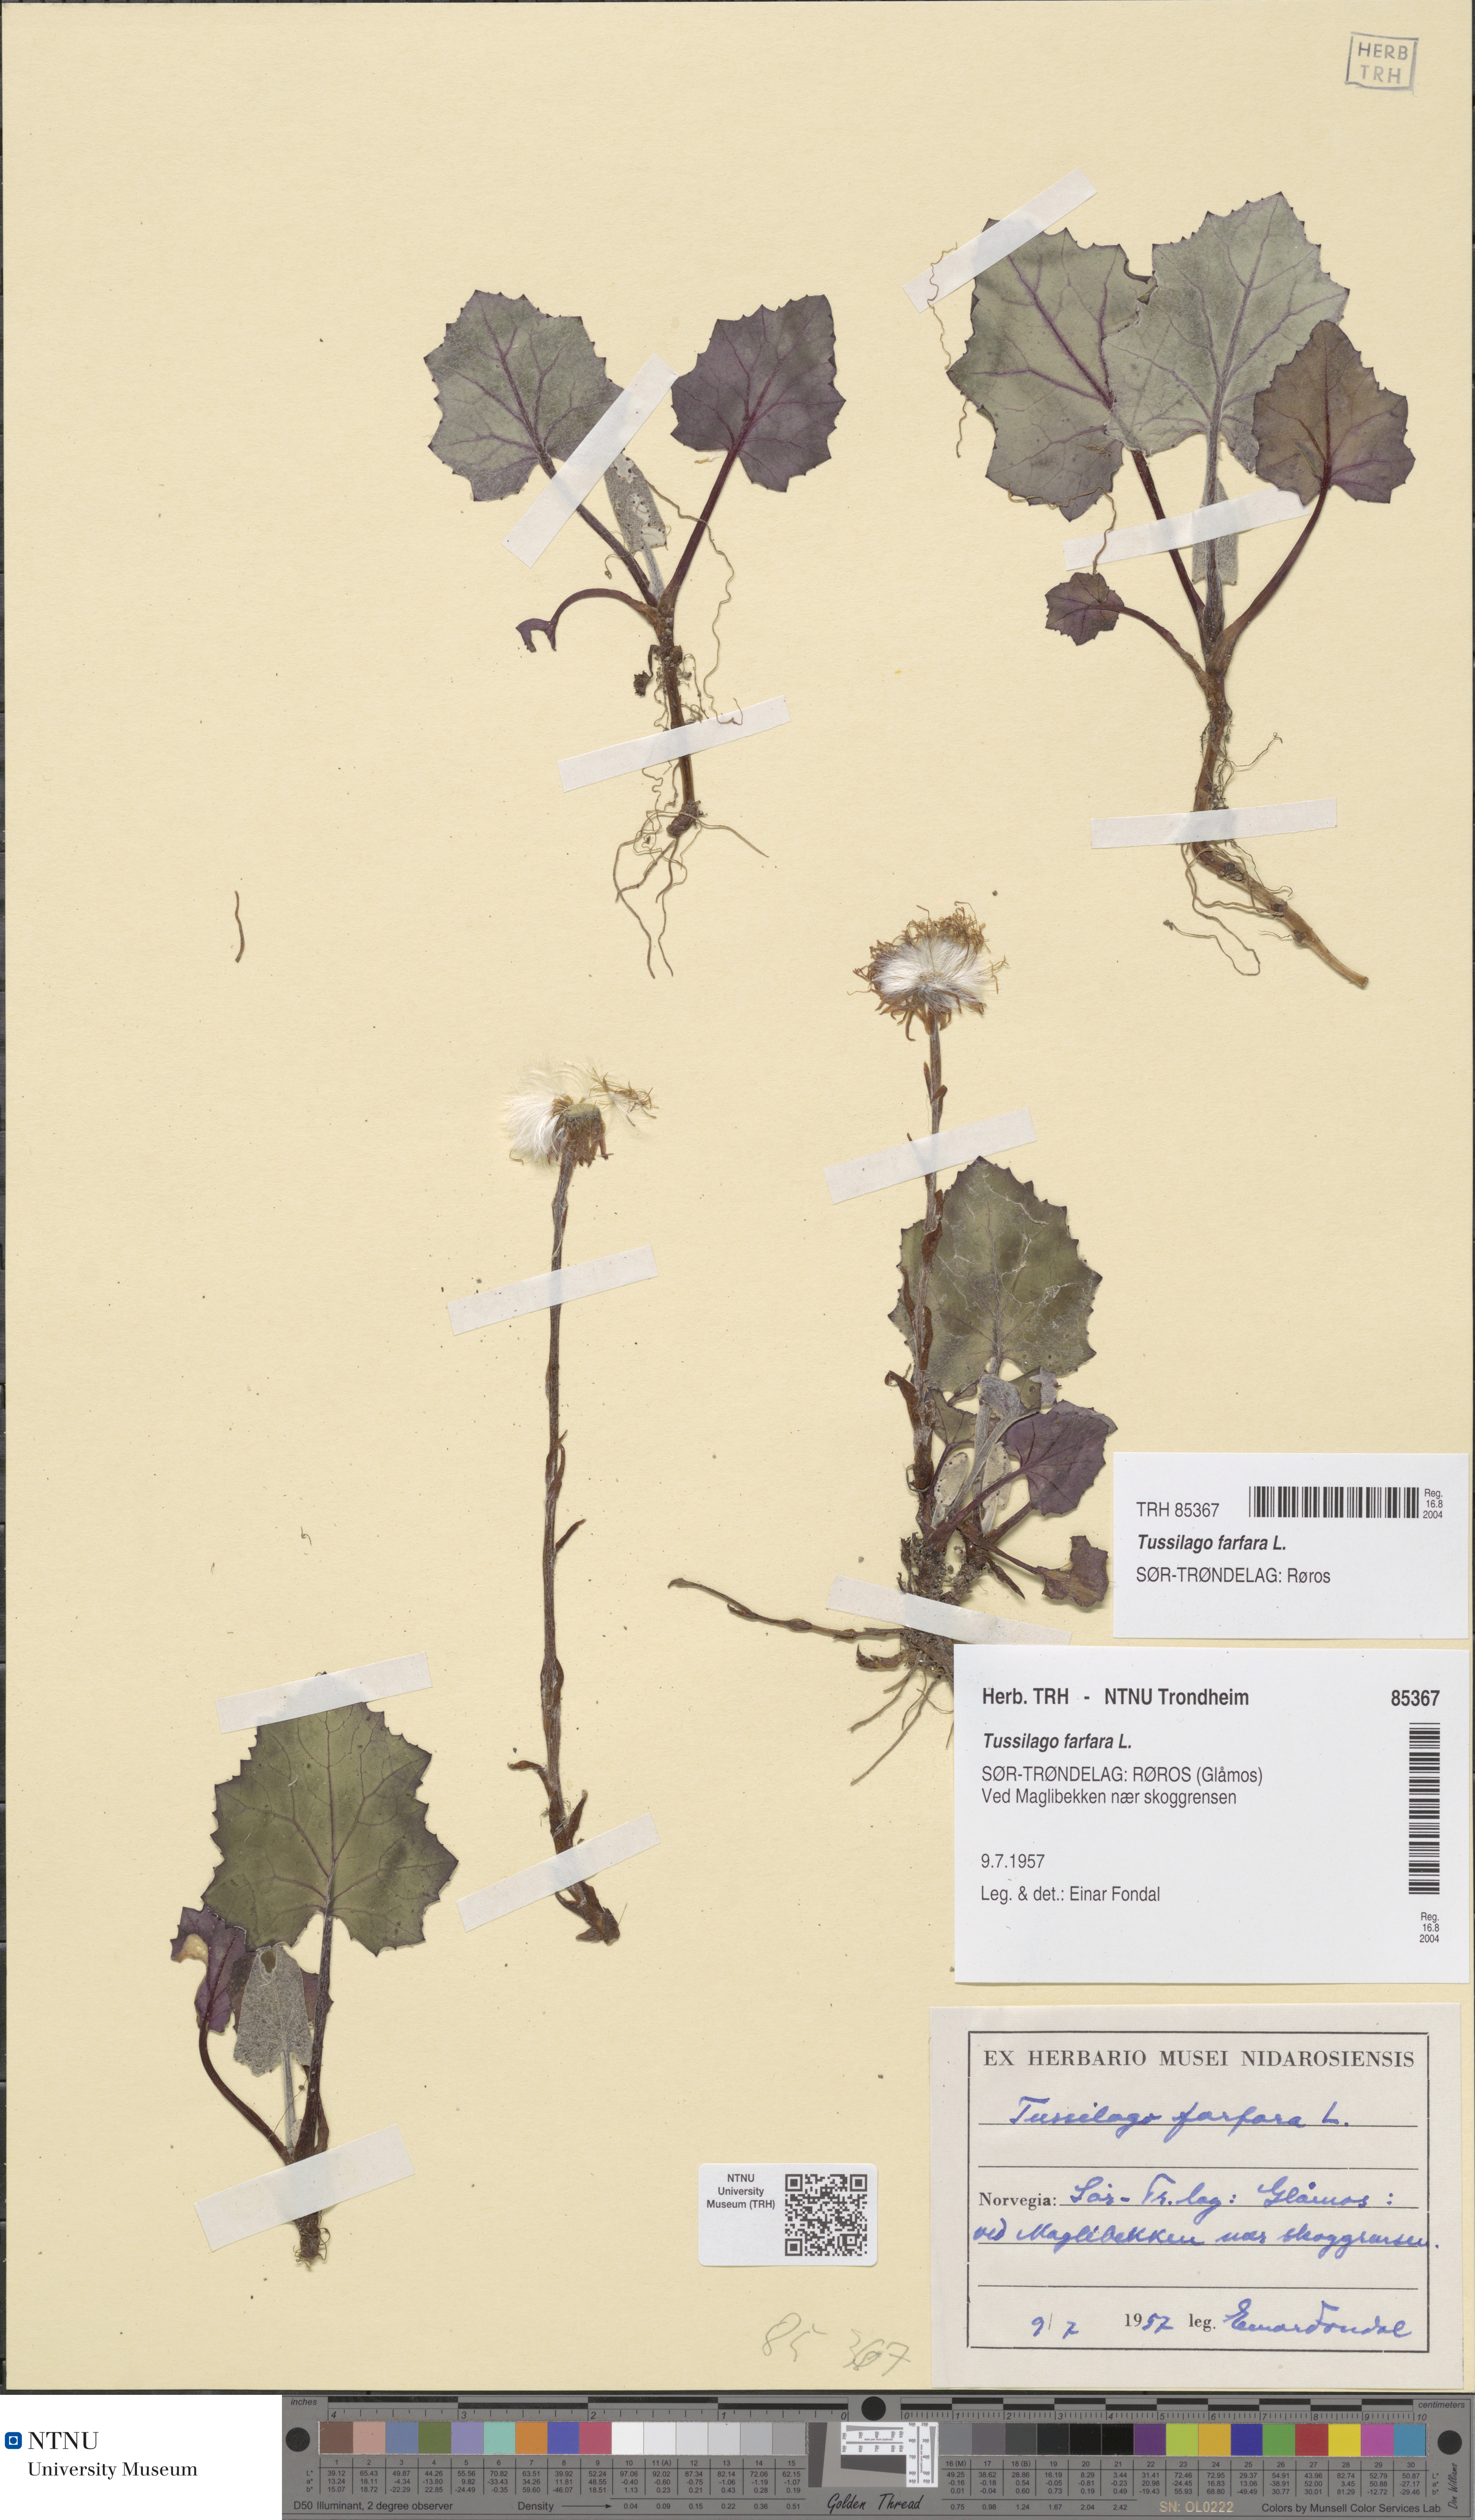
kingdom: Plantae
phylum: Tracheophyta
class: Magnoliopsida
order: Asterales
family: Asteraceae
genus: Tussilago
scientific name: Tussilago farfara
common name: Coltsfoot
